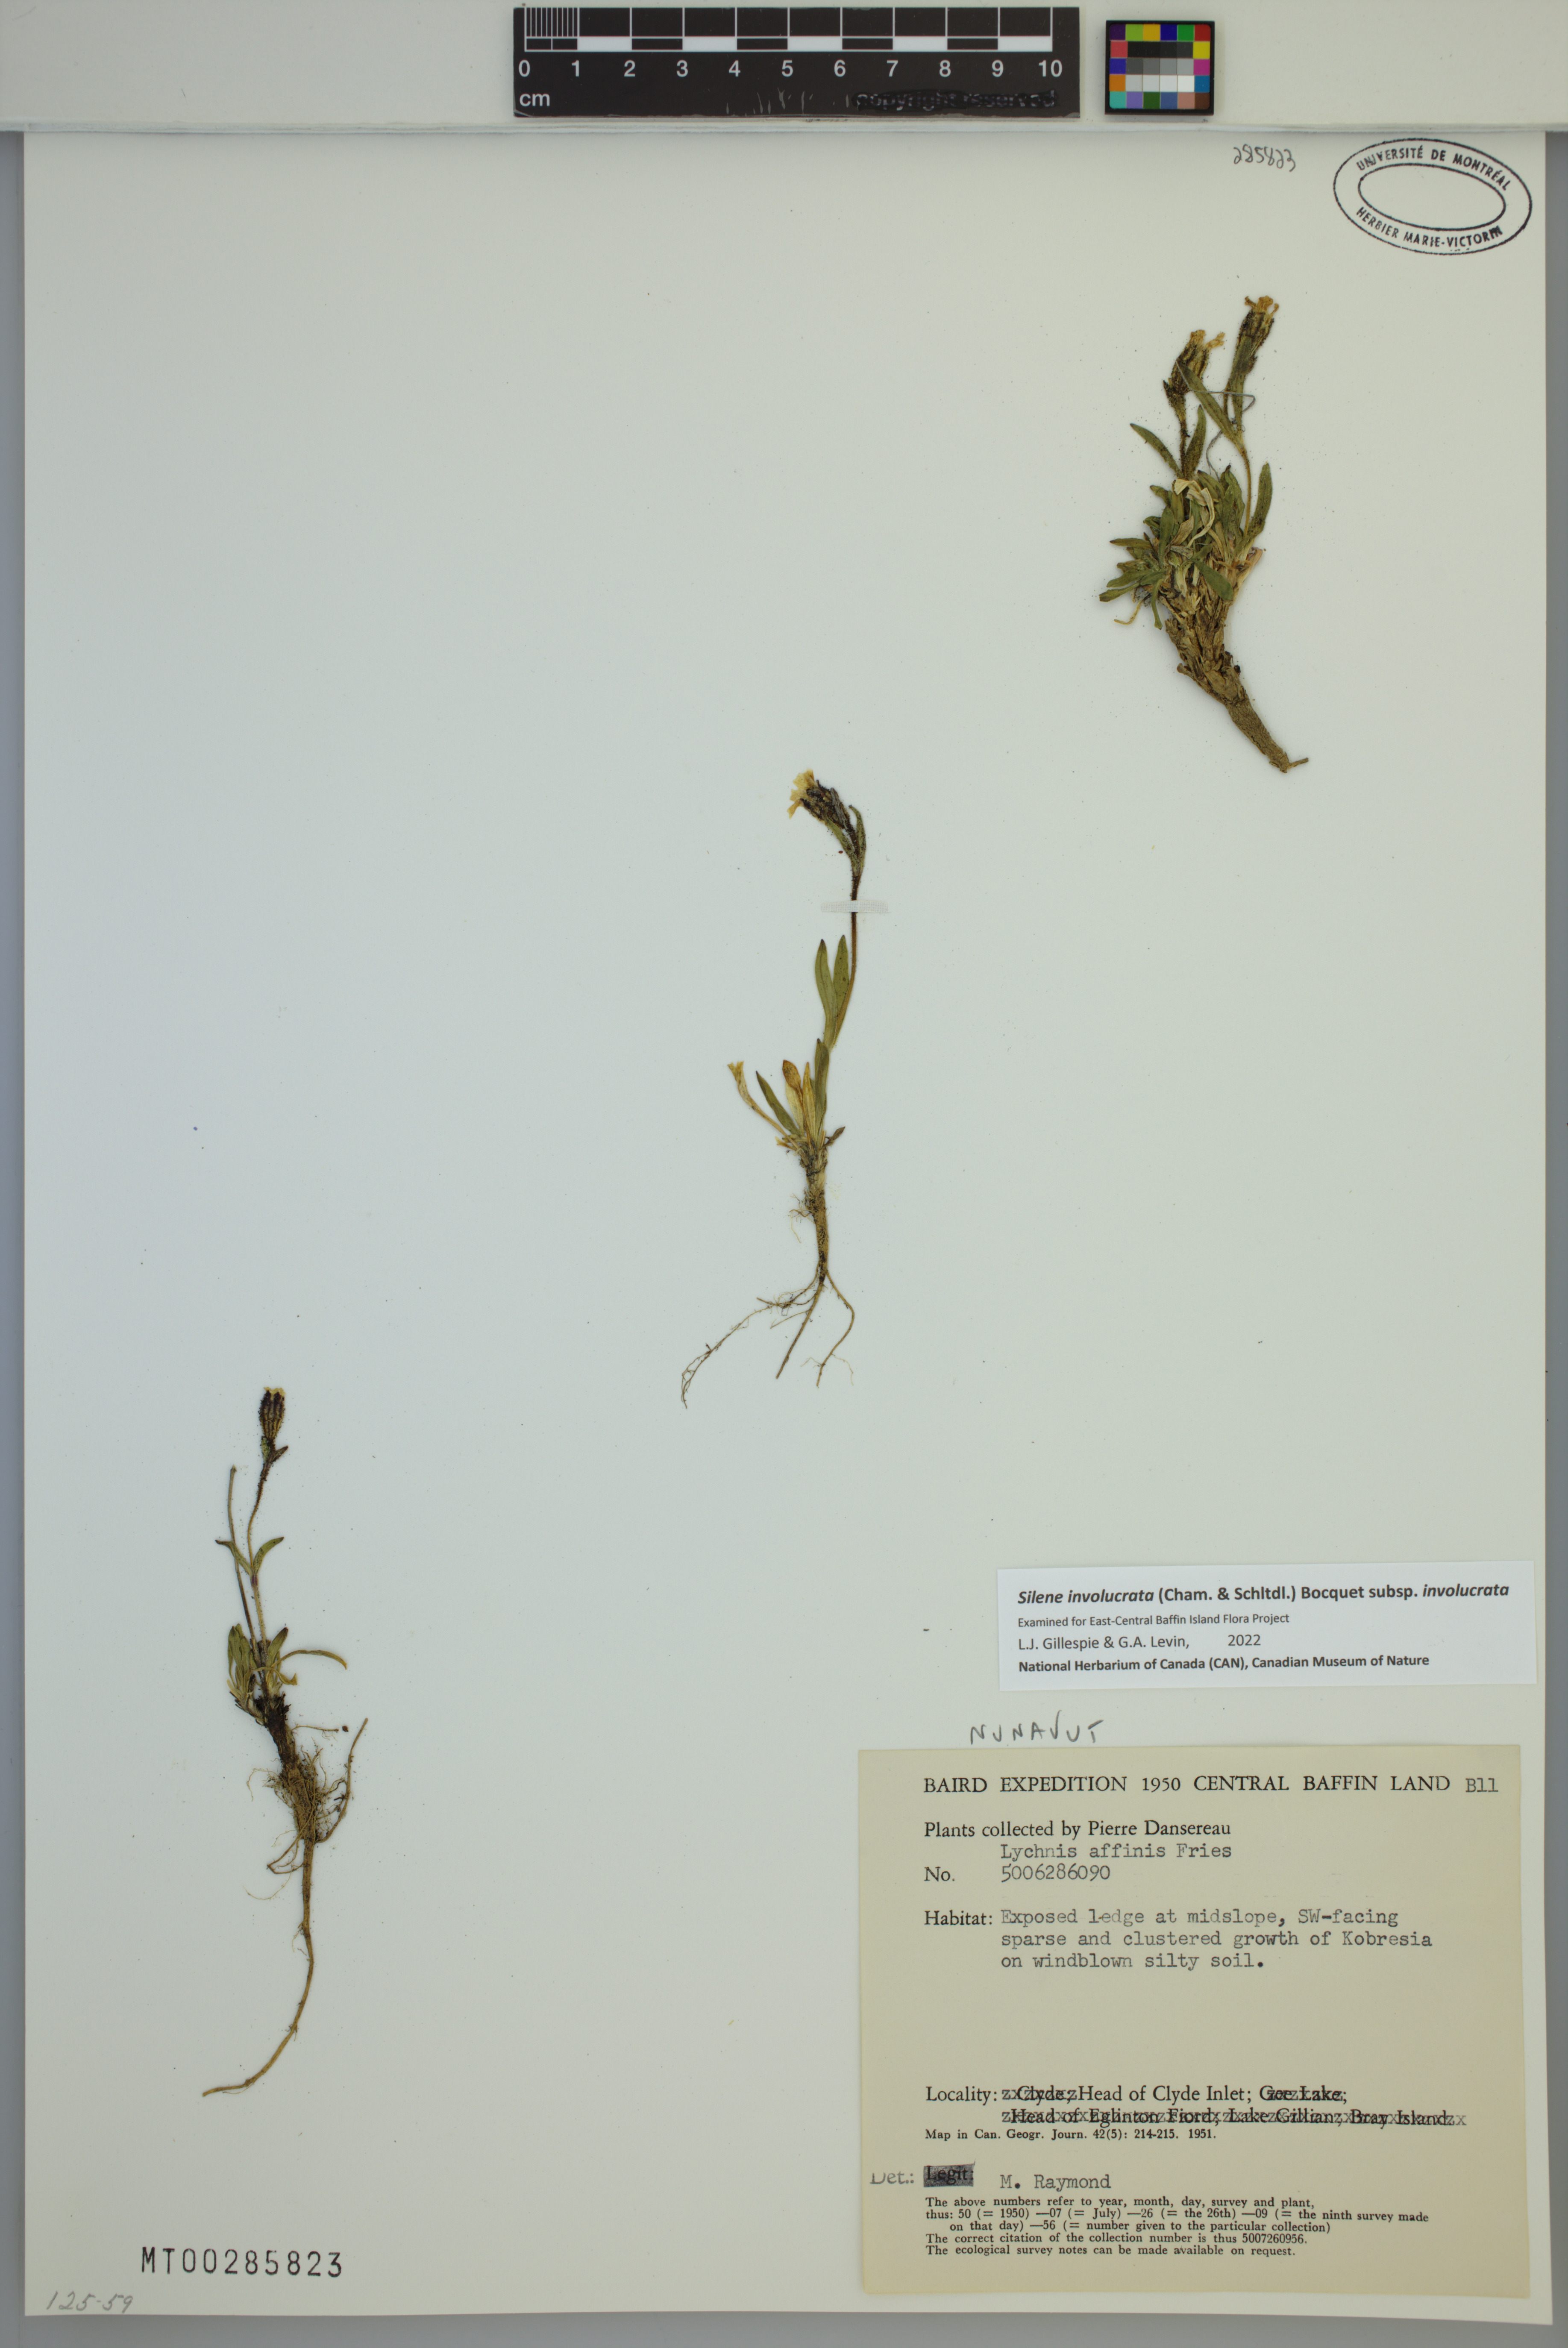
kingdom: Plantae
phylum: Tracheophyta
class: Magnoliopsida
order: Caryophyllales
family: Caryophyllaceae
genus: Silene
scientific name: Silene involucrata
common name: Greater arctic campion
